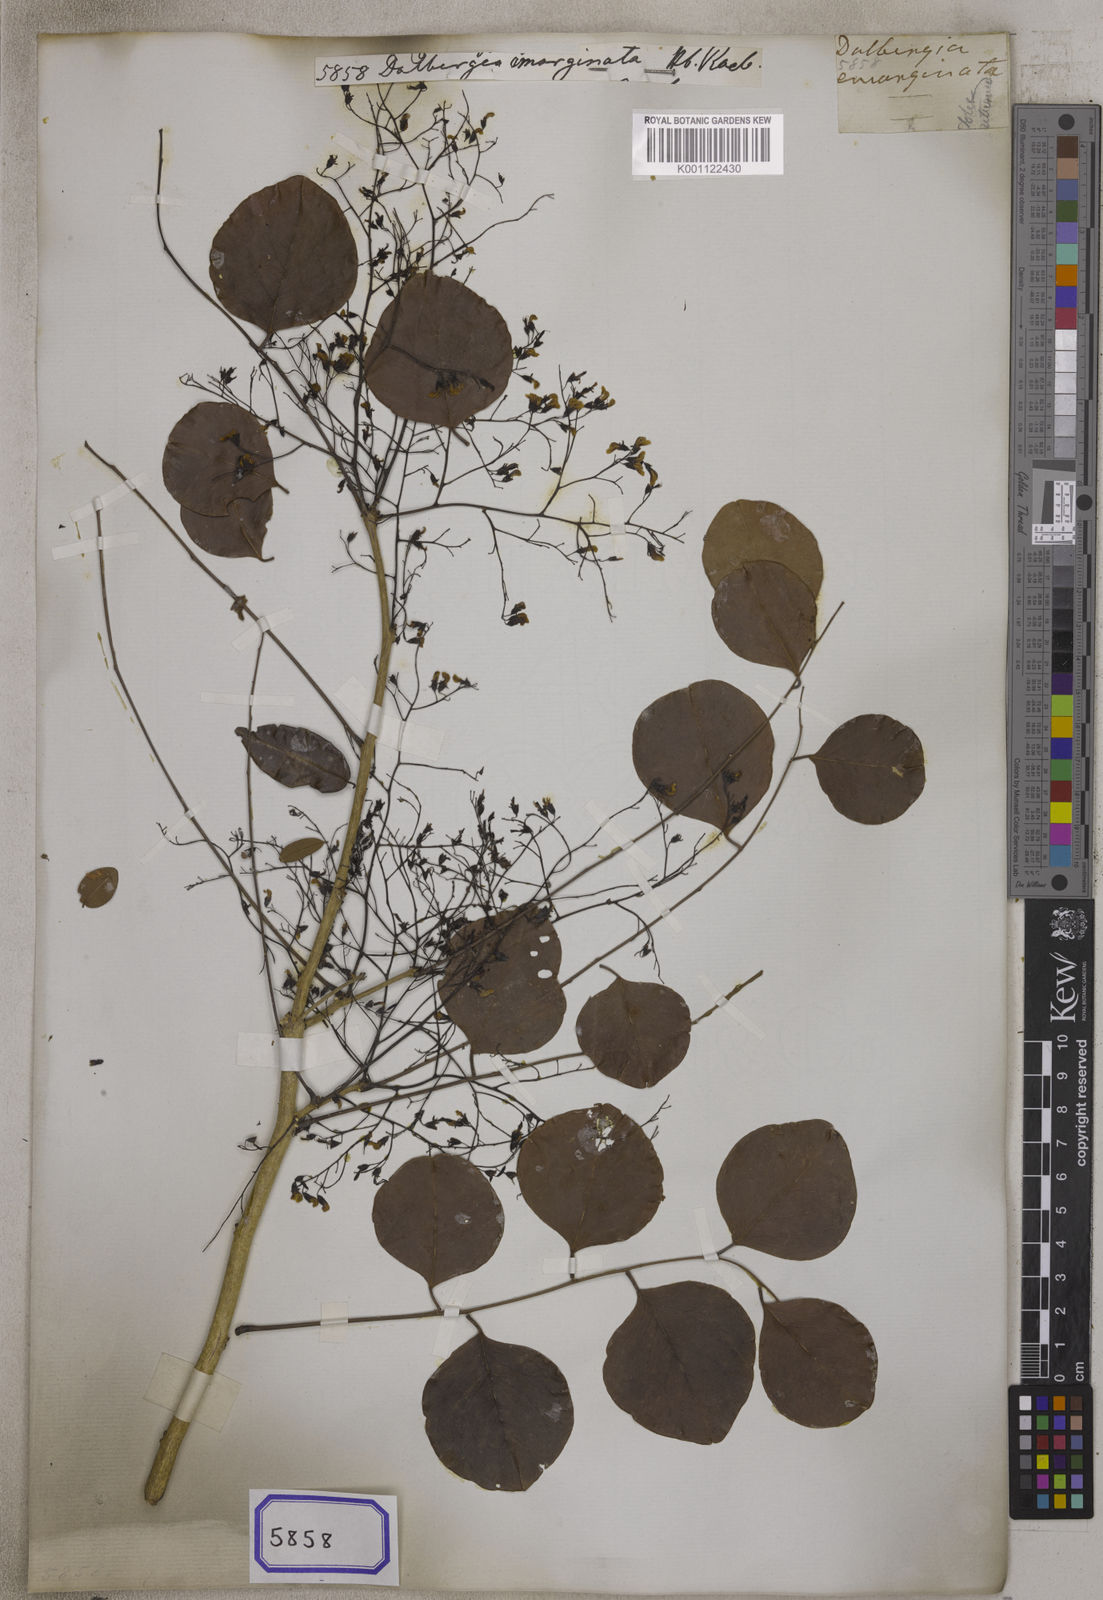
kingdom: Plantae
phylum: Tracheophyta
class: Magnoliopsida
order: Fabales
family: Fabaceae
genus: Dalbergia
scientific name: Dalbergia latifolia
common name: Bombay blackwood
